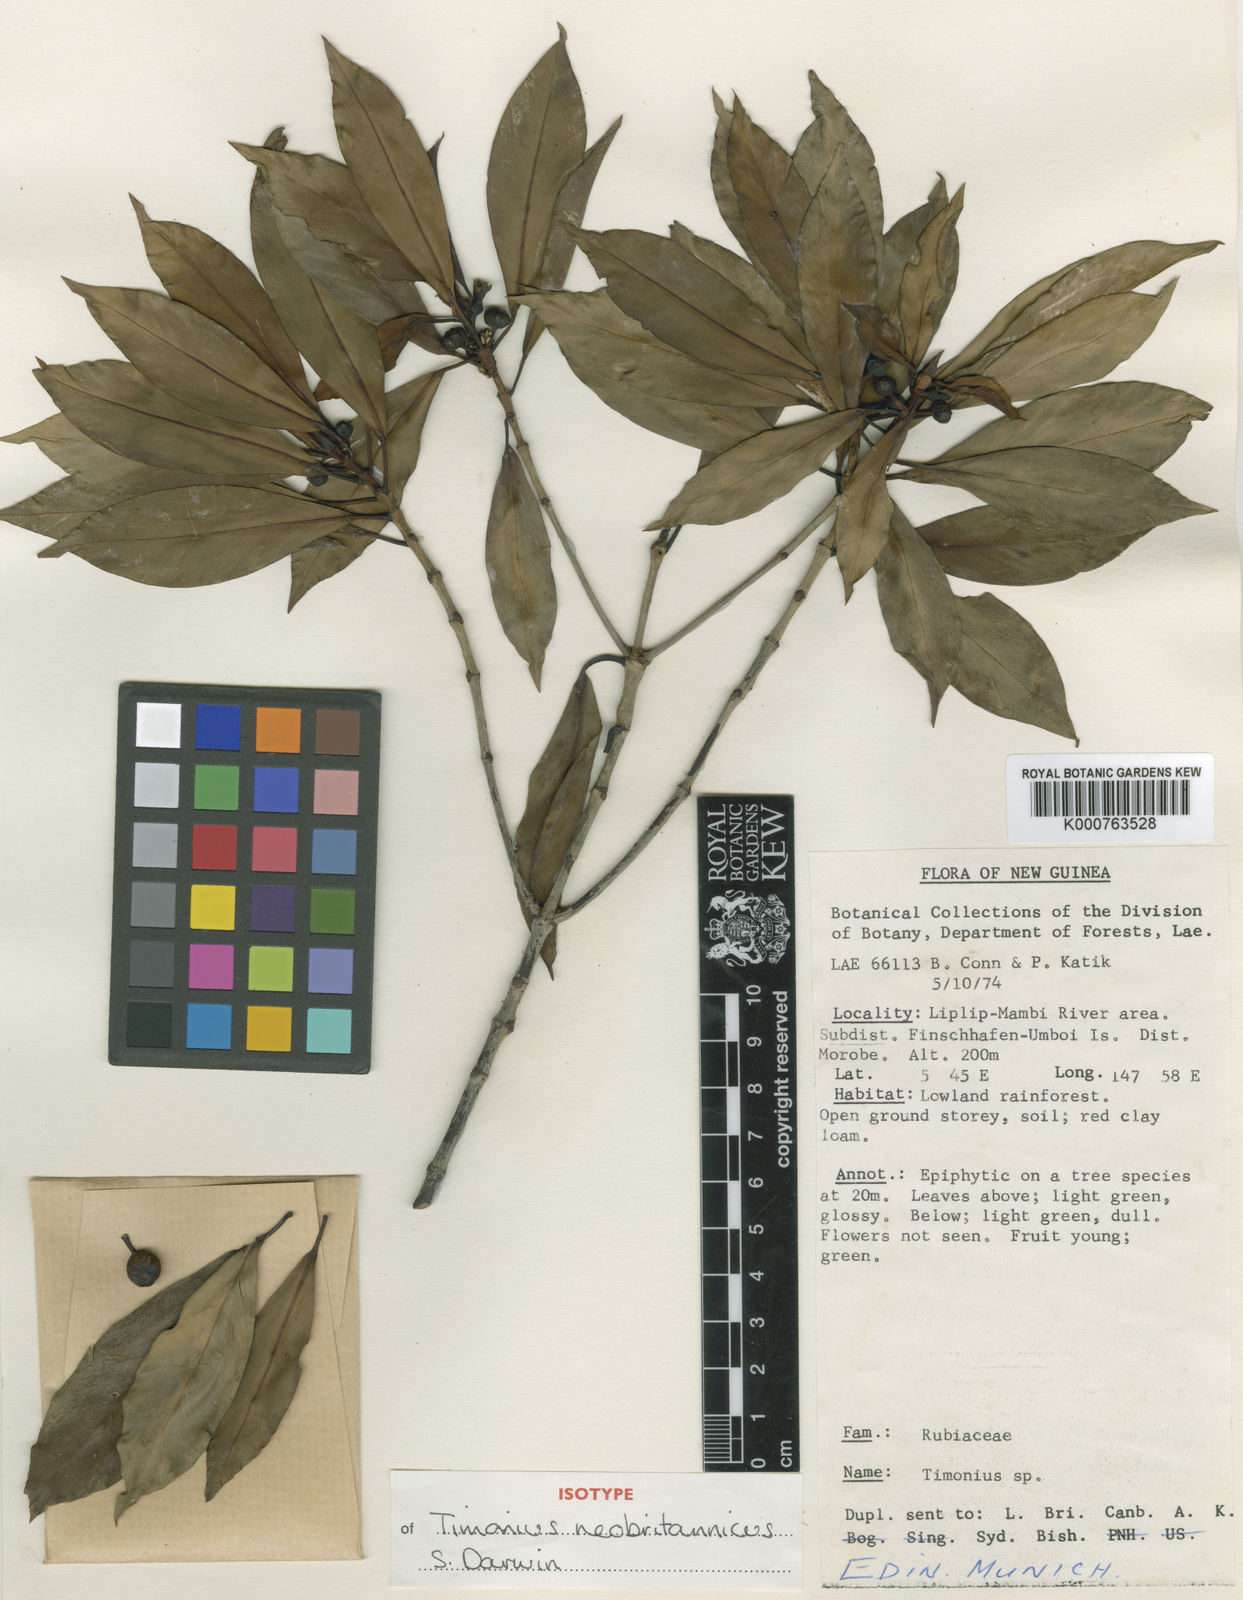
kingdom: Plantae
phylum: Tracheophyta
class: Magnoliopsida
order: Gentianales
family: Rubiaceae
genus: Timonius
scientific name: Timonius neobritannicus
